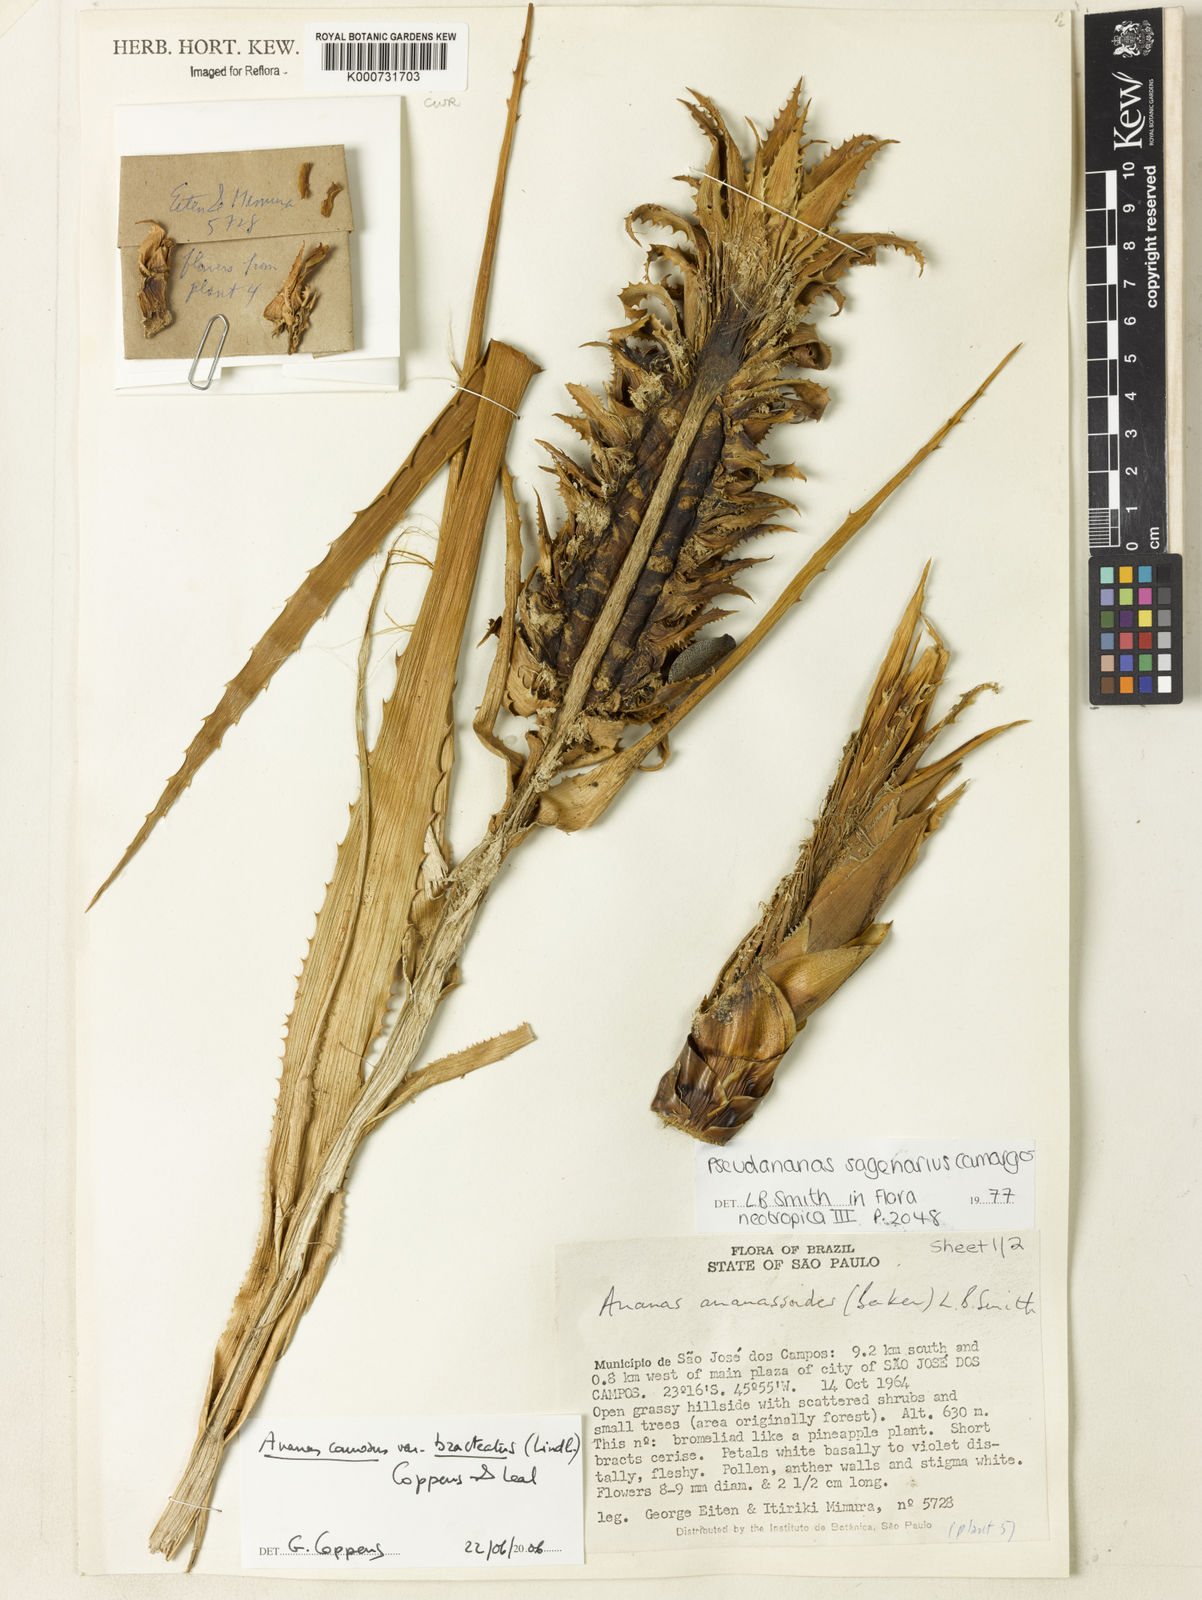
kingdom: Plantae
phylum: Tracheophyta
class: Liliopsida
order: Poales
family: Bromeliaceae
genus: Ananas
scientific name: Ananas comosus
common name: Pineapple
